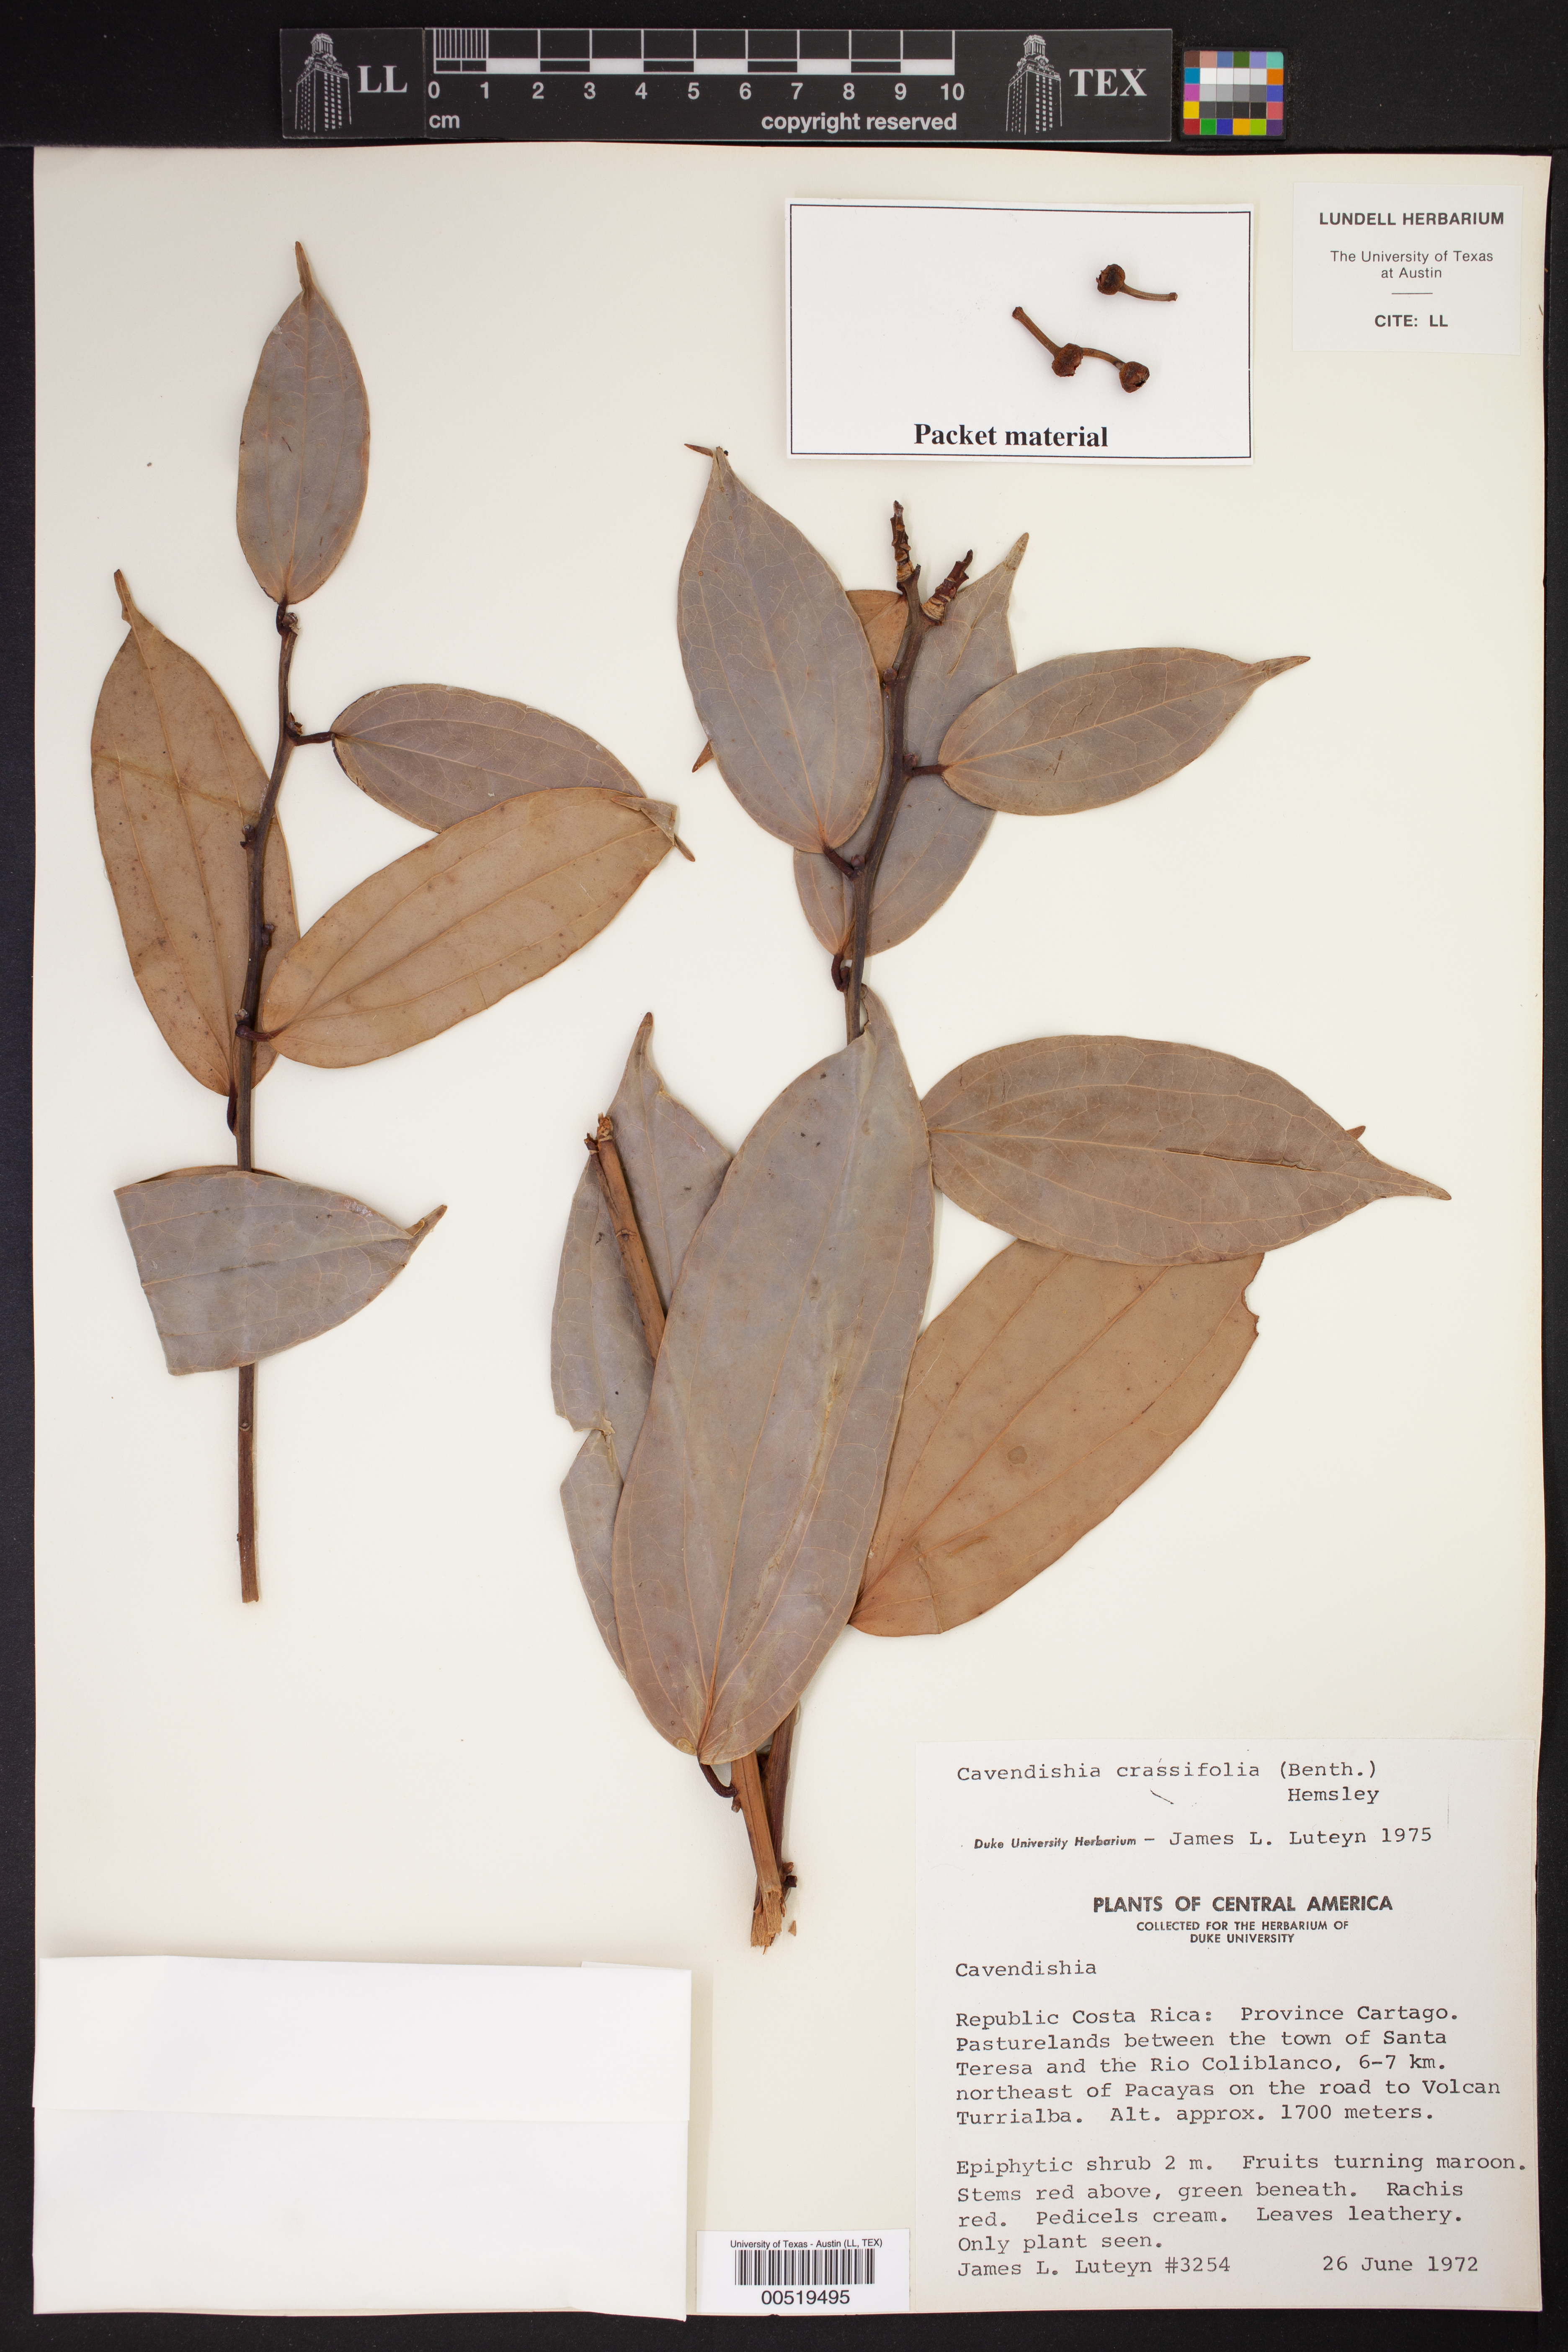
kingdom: Plantae
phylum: Tracheophyta
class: Magnoliopsida
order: Ericales
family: Ericaceae
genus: Cavendishia
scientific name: Cavendishia
